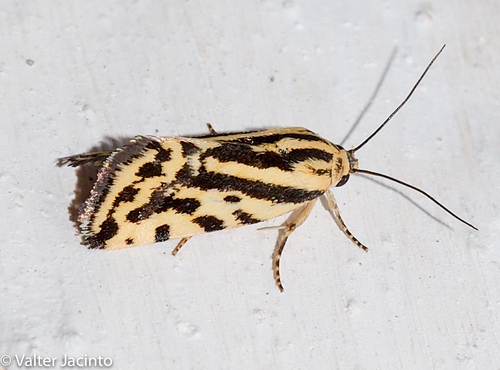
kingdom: Animalia
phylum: Arthropoda
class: Insecta
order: Lepidoptera
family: Noctuidae
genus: Acontia
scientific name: Acontia trabealis
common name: Spotted sulphur
